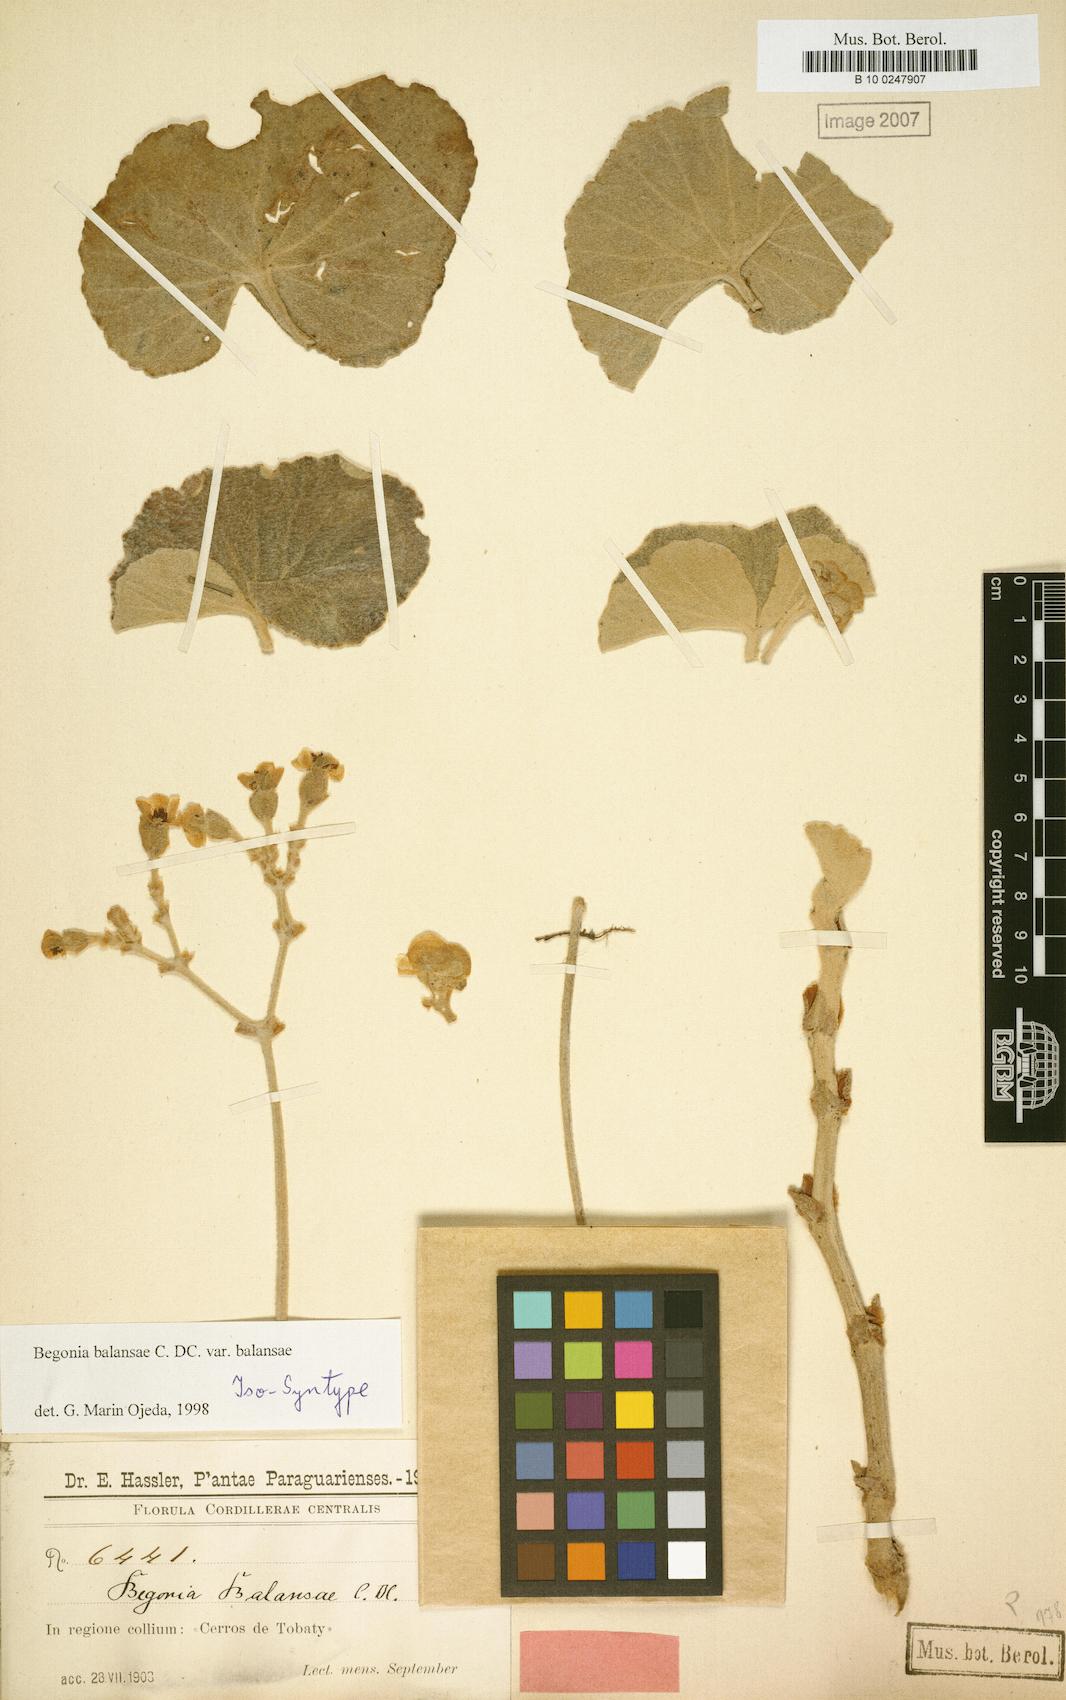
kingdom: Plantae
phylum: Tracheophyta
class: Magnoliopsida
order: Cucurbitales
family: Begoniaceae
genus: Begonia
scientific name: Begonia balansae
